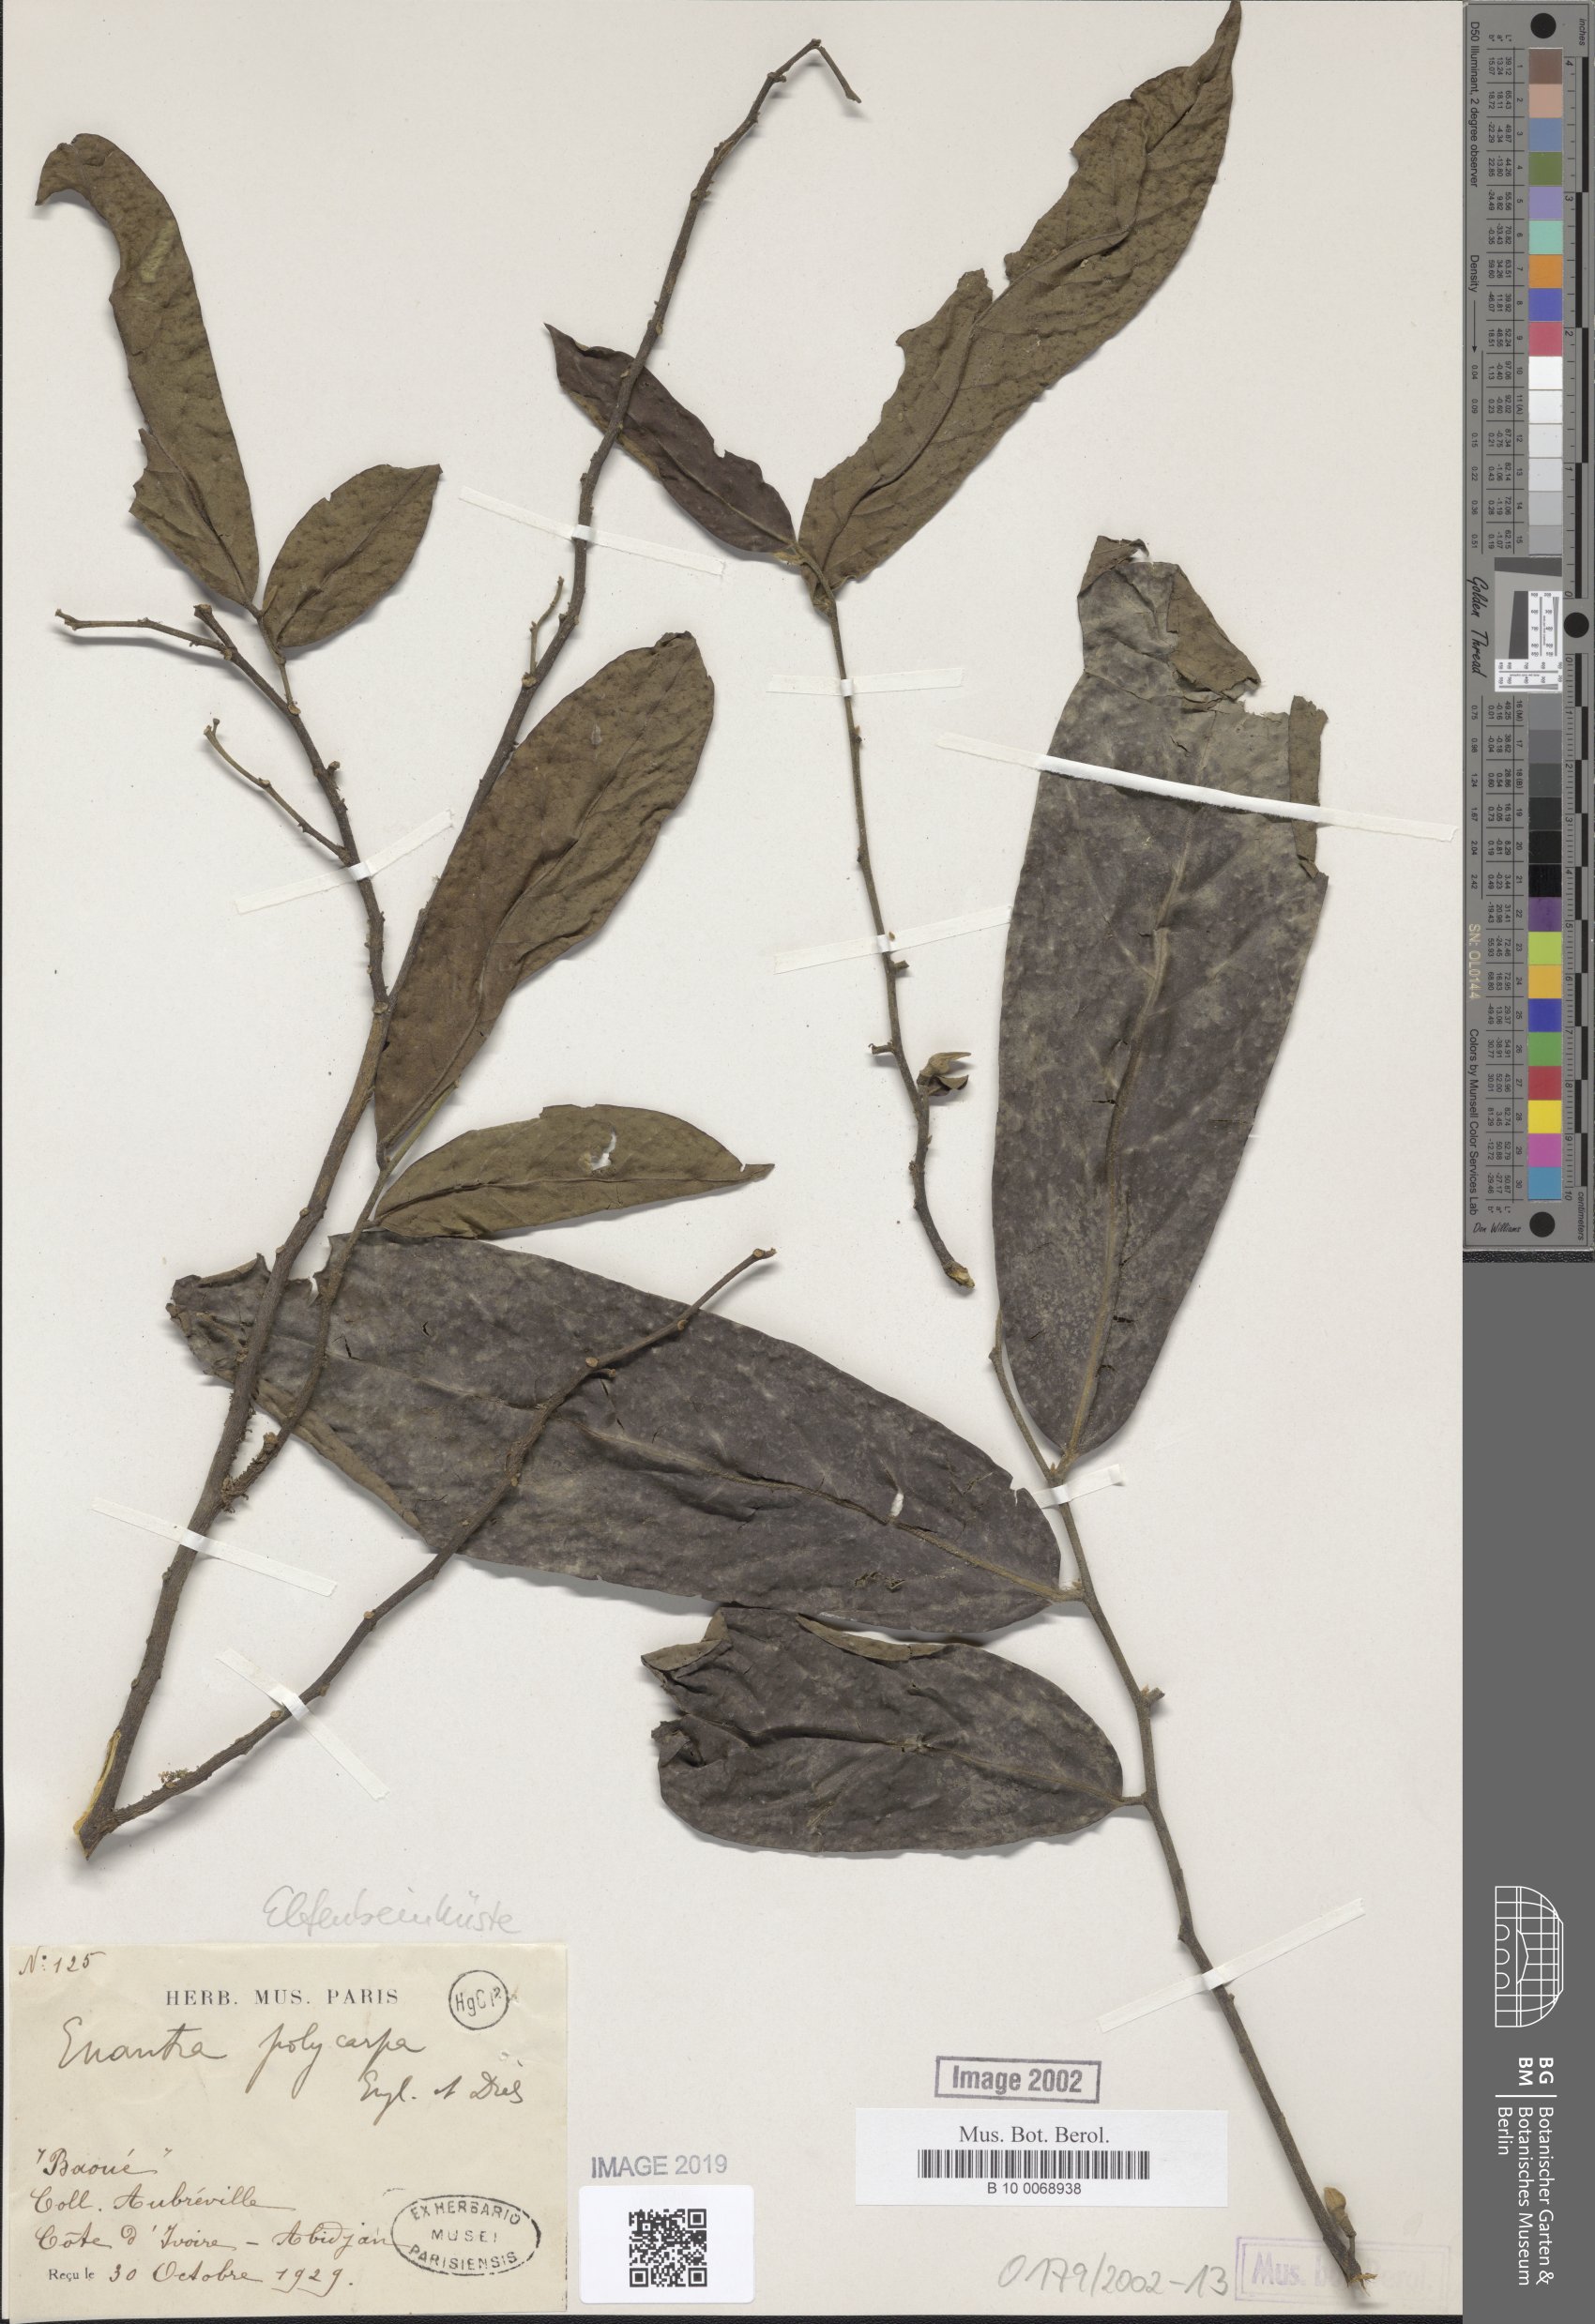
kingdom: Plantae
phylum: Tracheophyta
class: Magnoliopsida
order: Magnoliales
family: Annonaceae
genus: Annickia
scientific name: Annickia polycarpa
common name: African yellowwood
